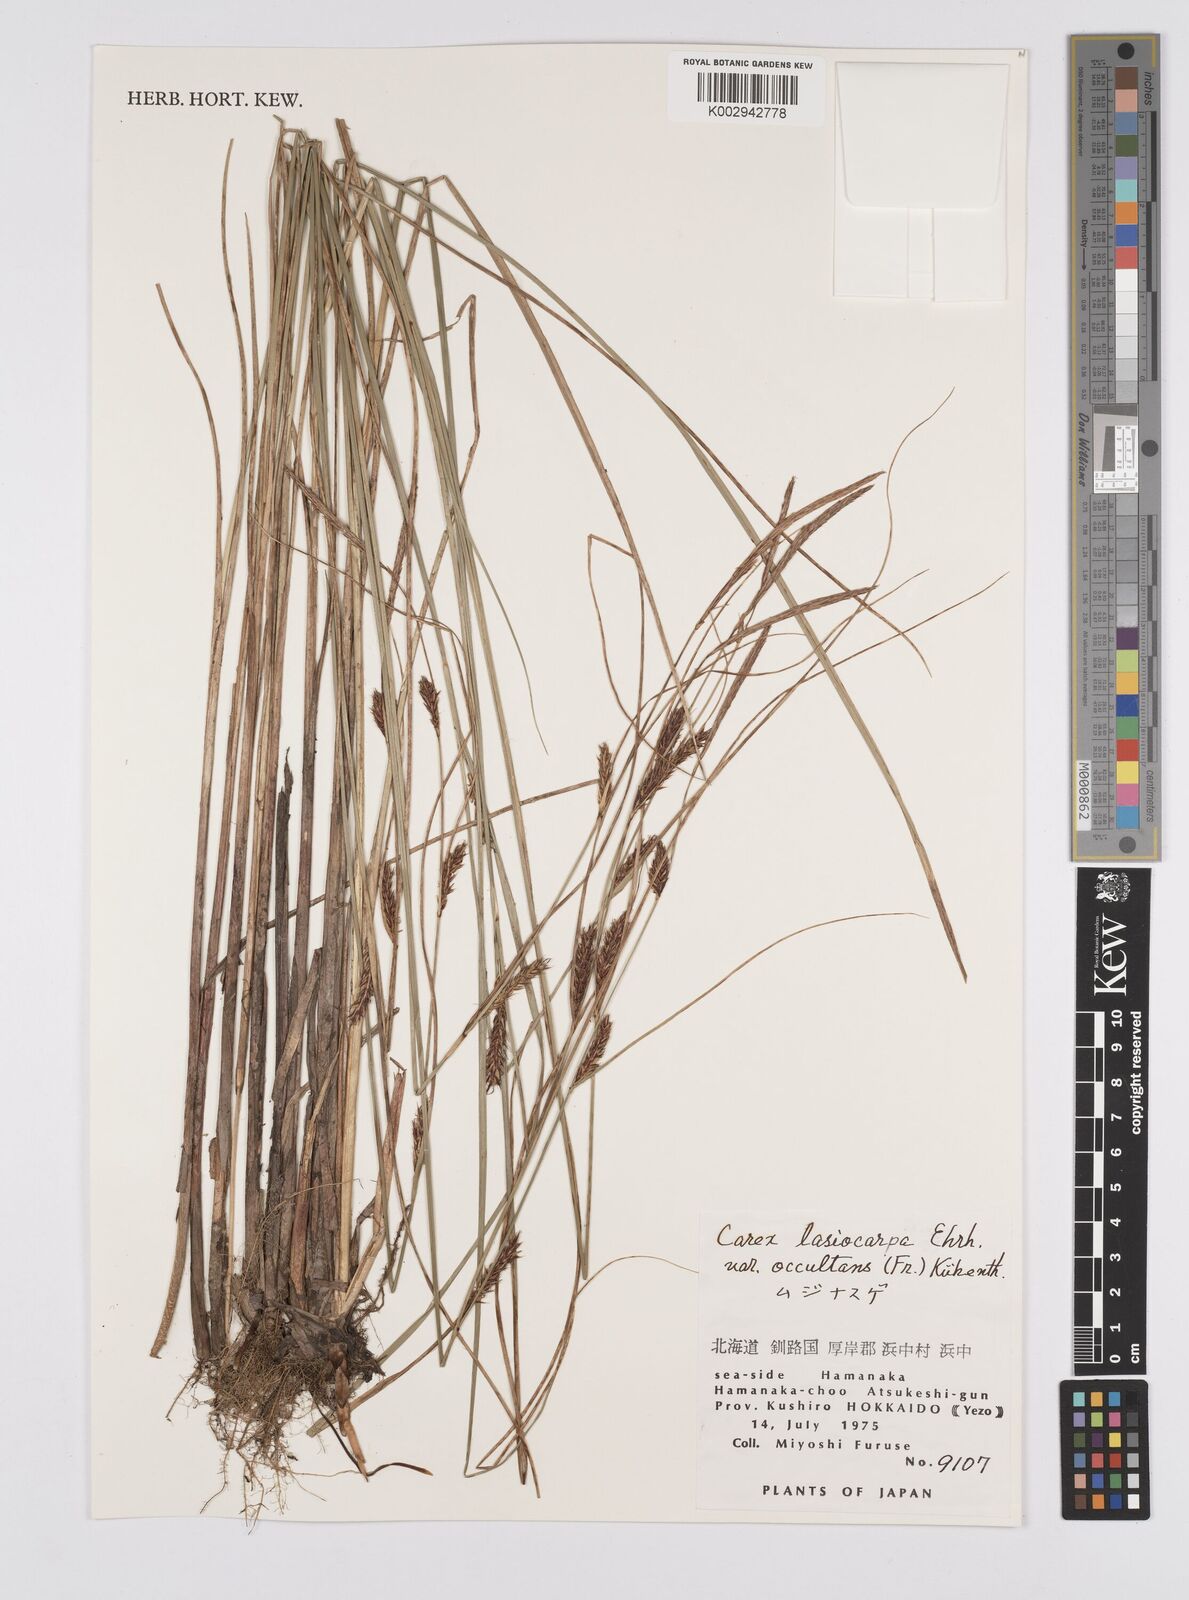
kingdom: Plantae
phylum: Tracheophyta
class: Liliopsida
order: Poales
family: Cyperaceae
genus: Carex
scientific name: Carex lasiocarpa
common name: Slender sedge
